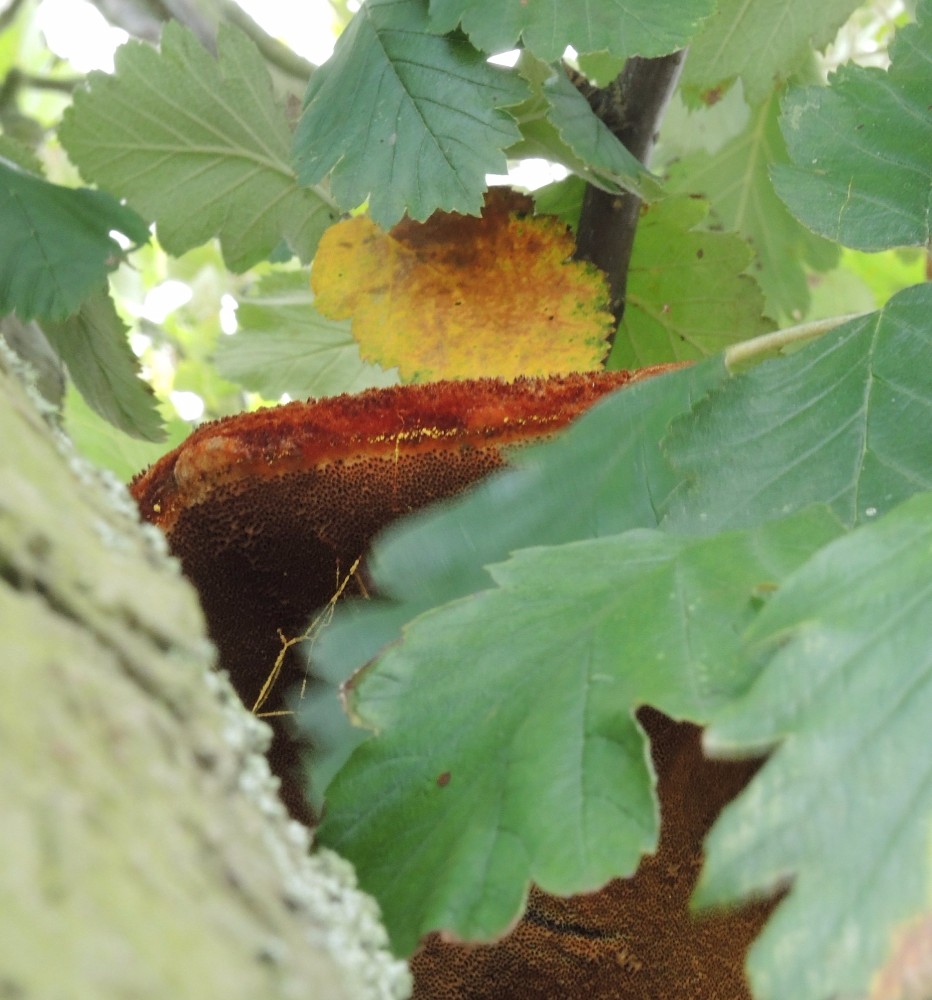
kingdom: Fungi
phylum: Basidiomycota
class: Agaricomycetes
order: Hymenochaetales
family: Hymenochaetaceae
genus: Inonotus
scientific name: Inonotus hispidus
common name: børstehåret spejlporesvamp
